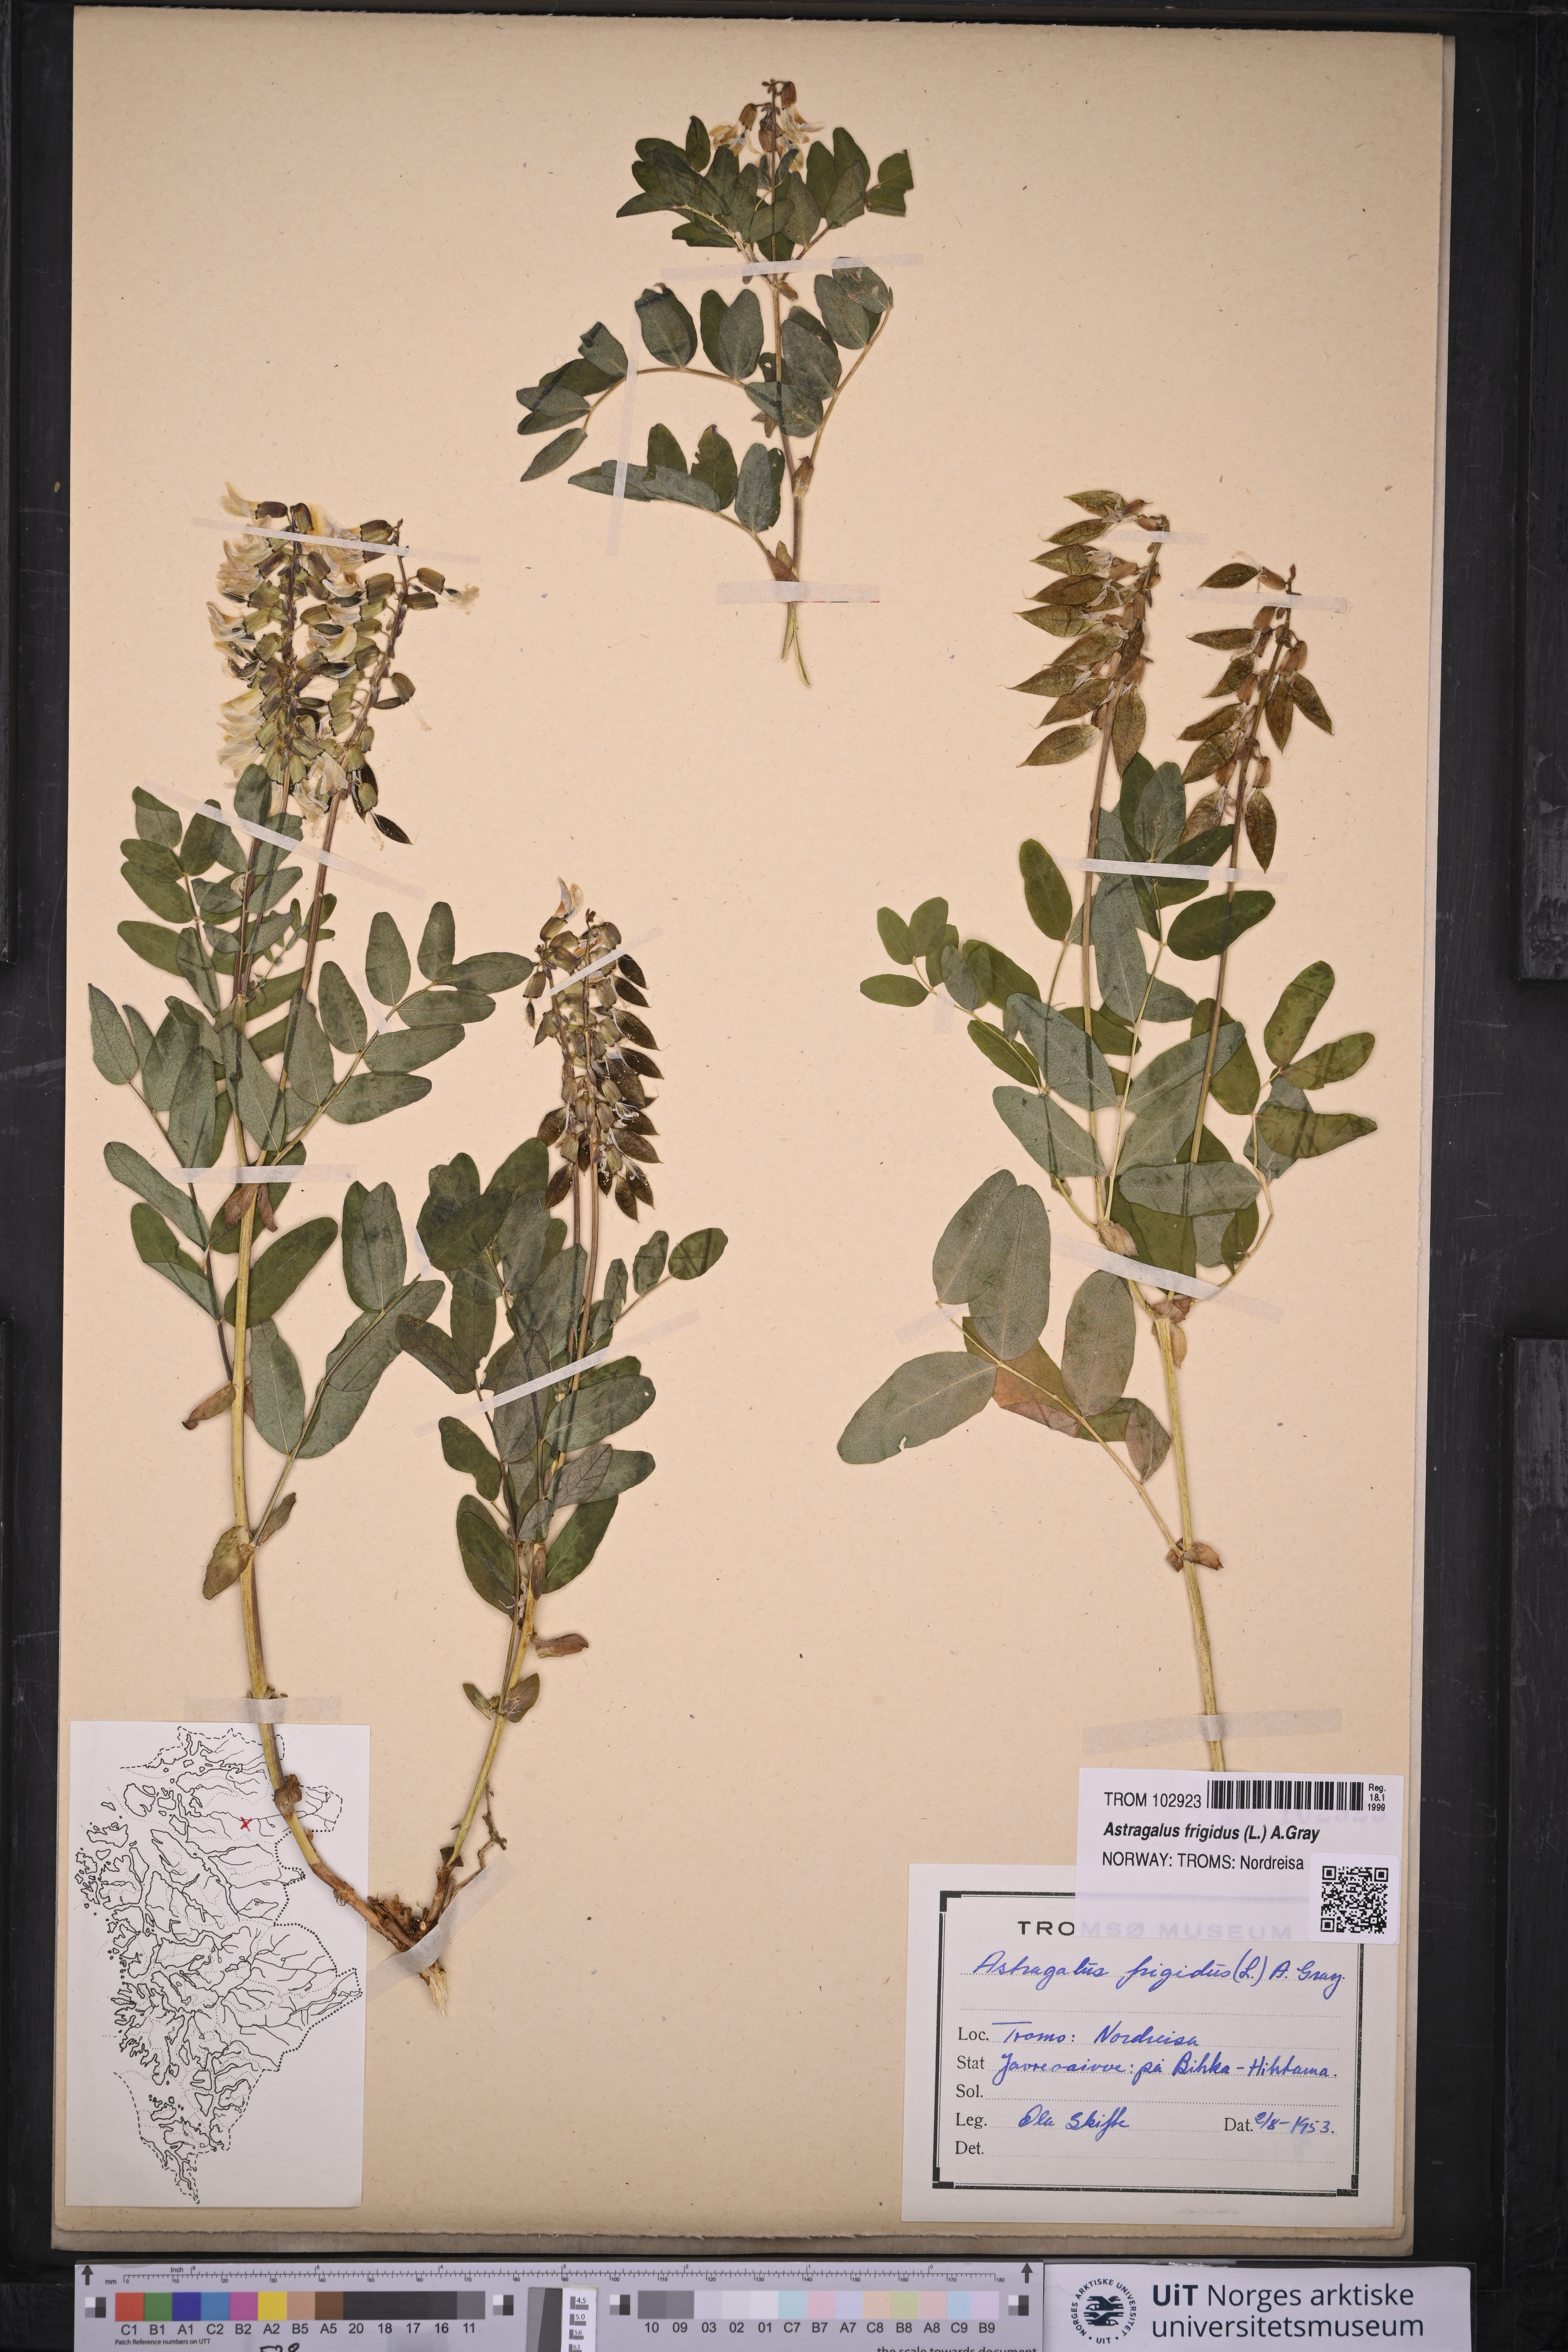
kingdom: Plantae
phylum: Tracheophyta
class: Magnoliopsida
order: Fabales
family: Fabaceae
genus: Astragalus
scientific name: Astragalus frigidus
